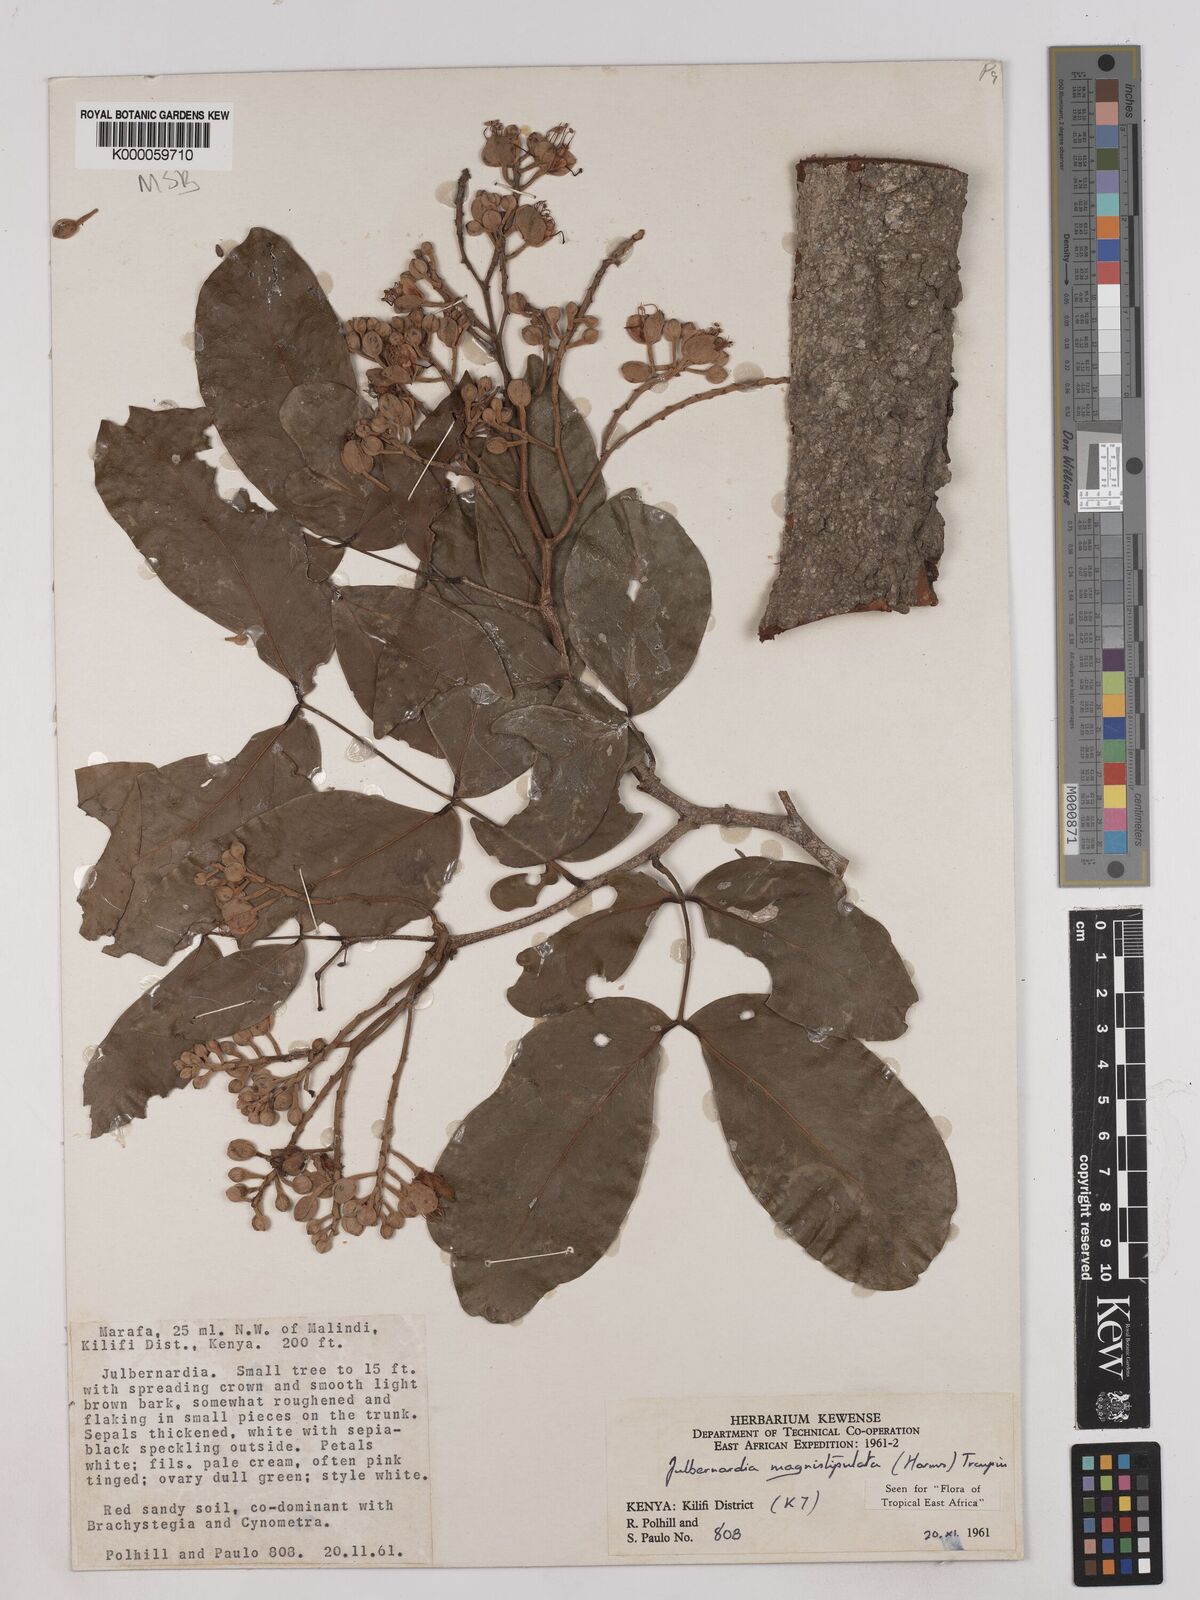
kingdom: Plantae
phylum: Tracheophyta
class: Magnoliopsida
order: Fabales
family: Fabaceae
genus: Julbernardia
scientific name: Julbernardia magnistipulata
